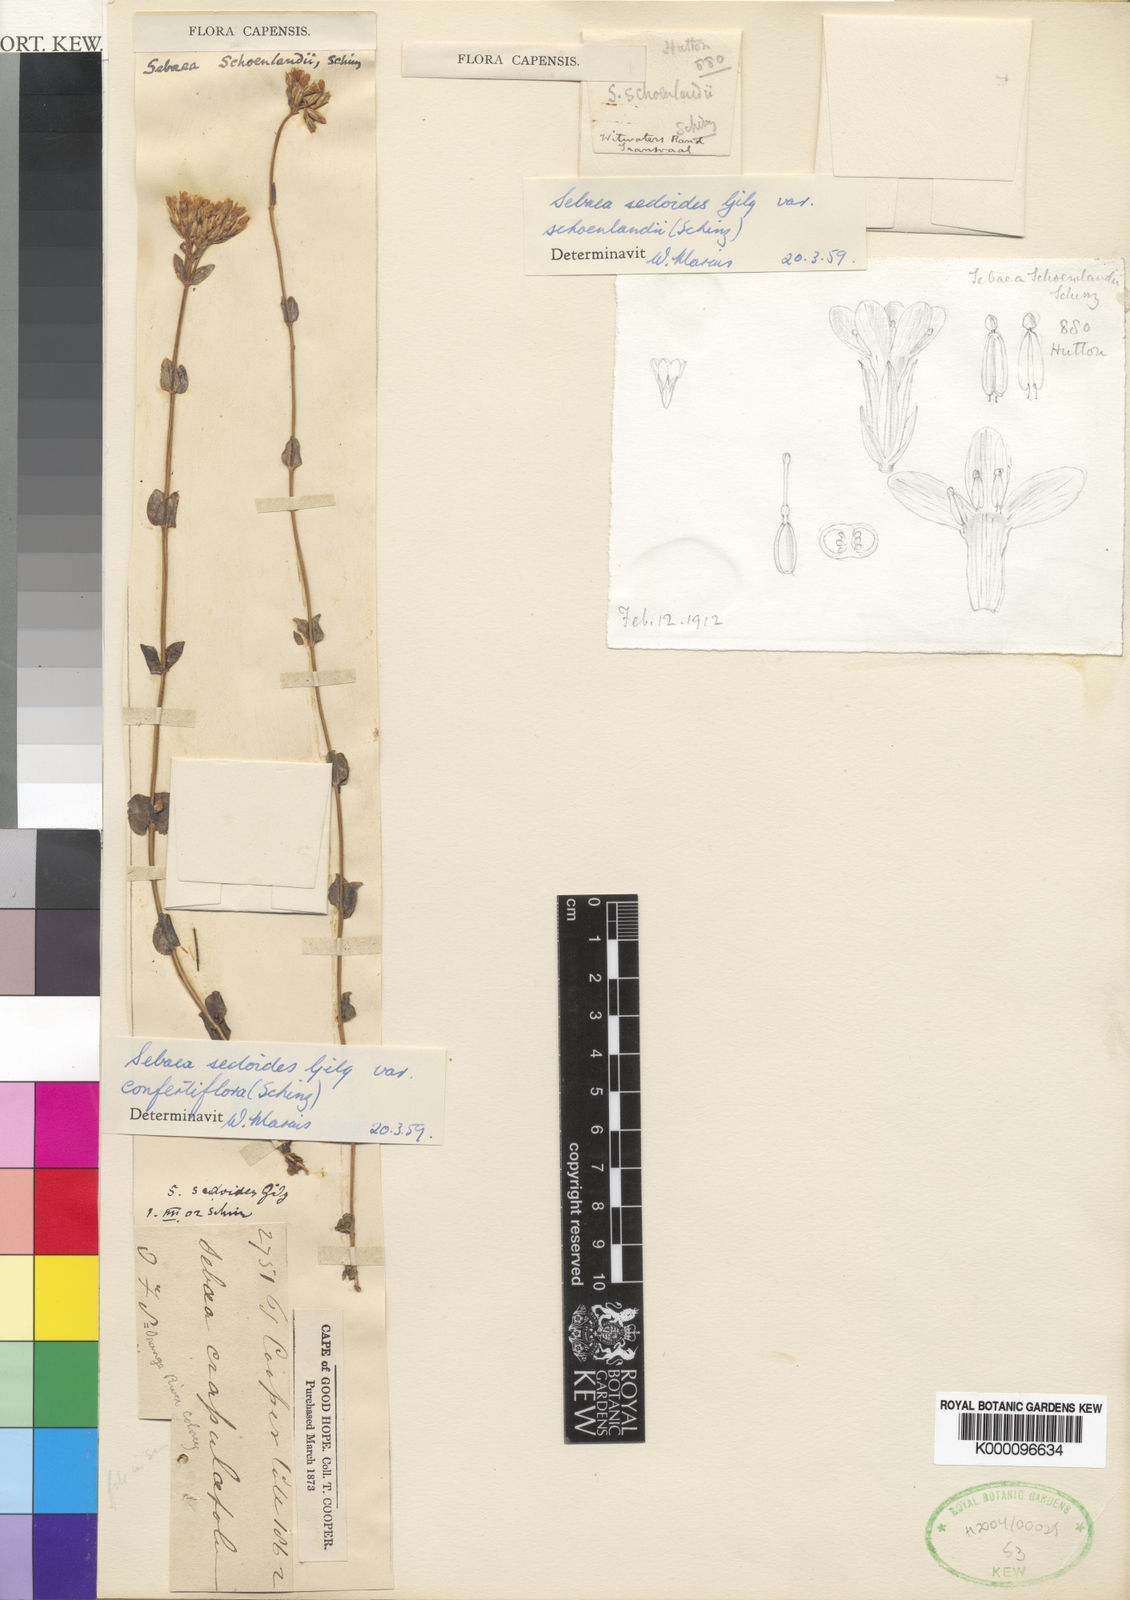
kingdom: Plantae
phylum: Tracheophyta
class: Magnoliopsida
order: Gentianales
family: Gentianaceae
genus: Sebaea
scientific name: Sebaea
